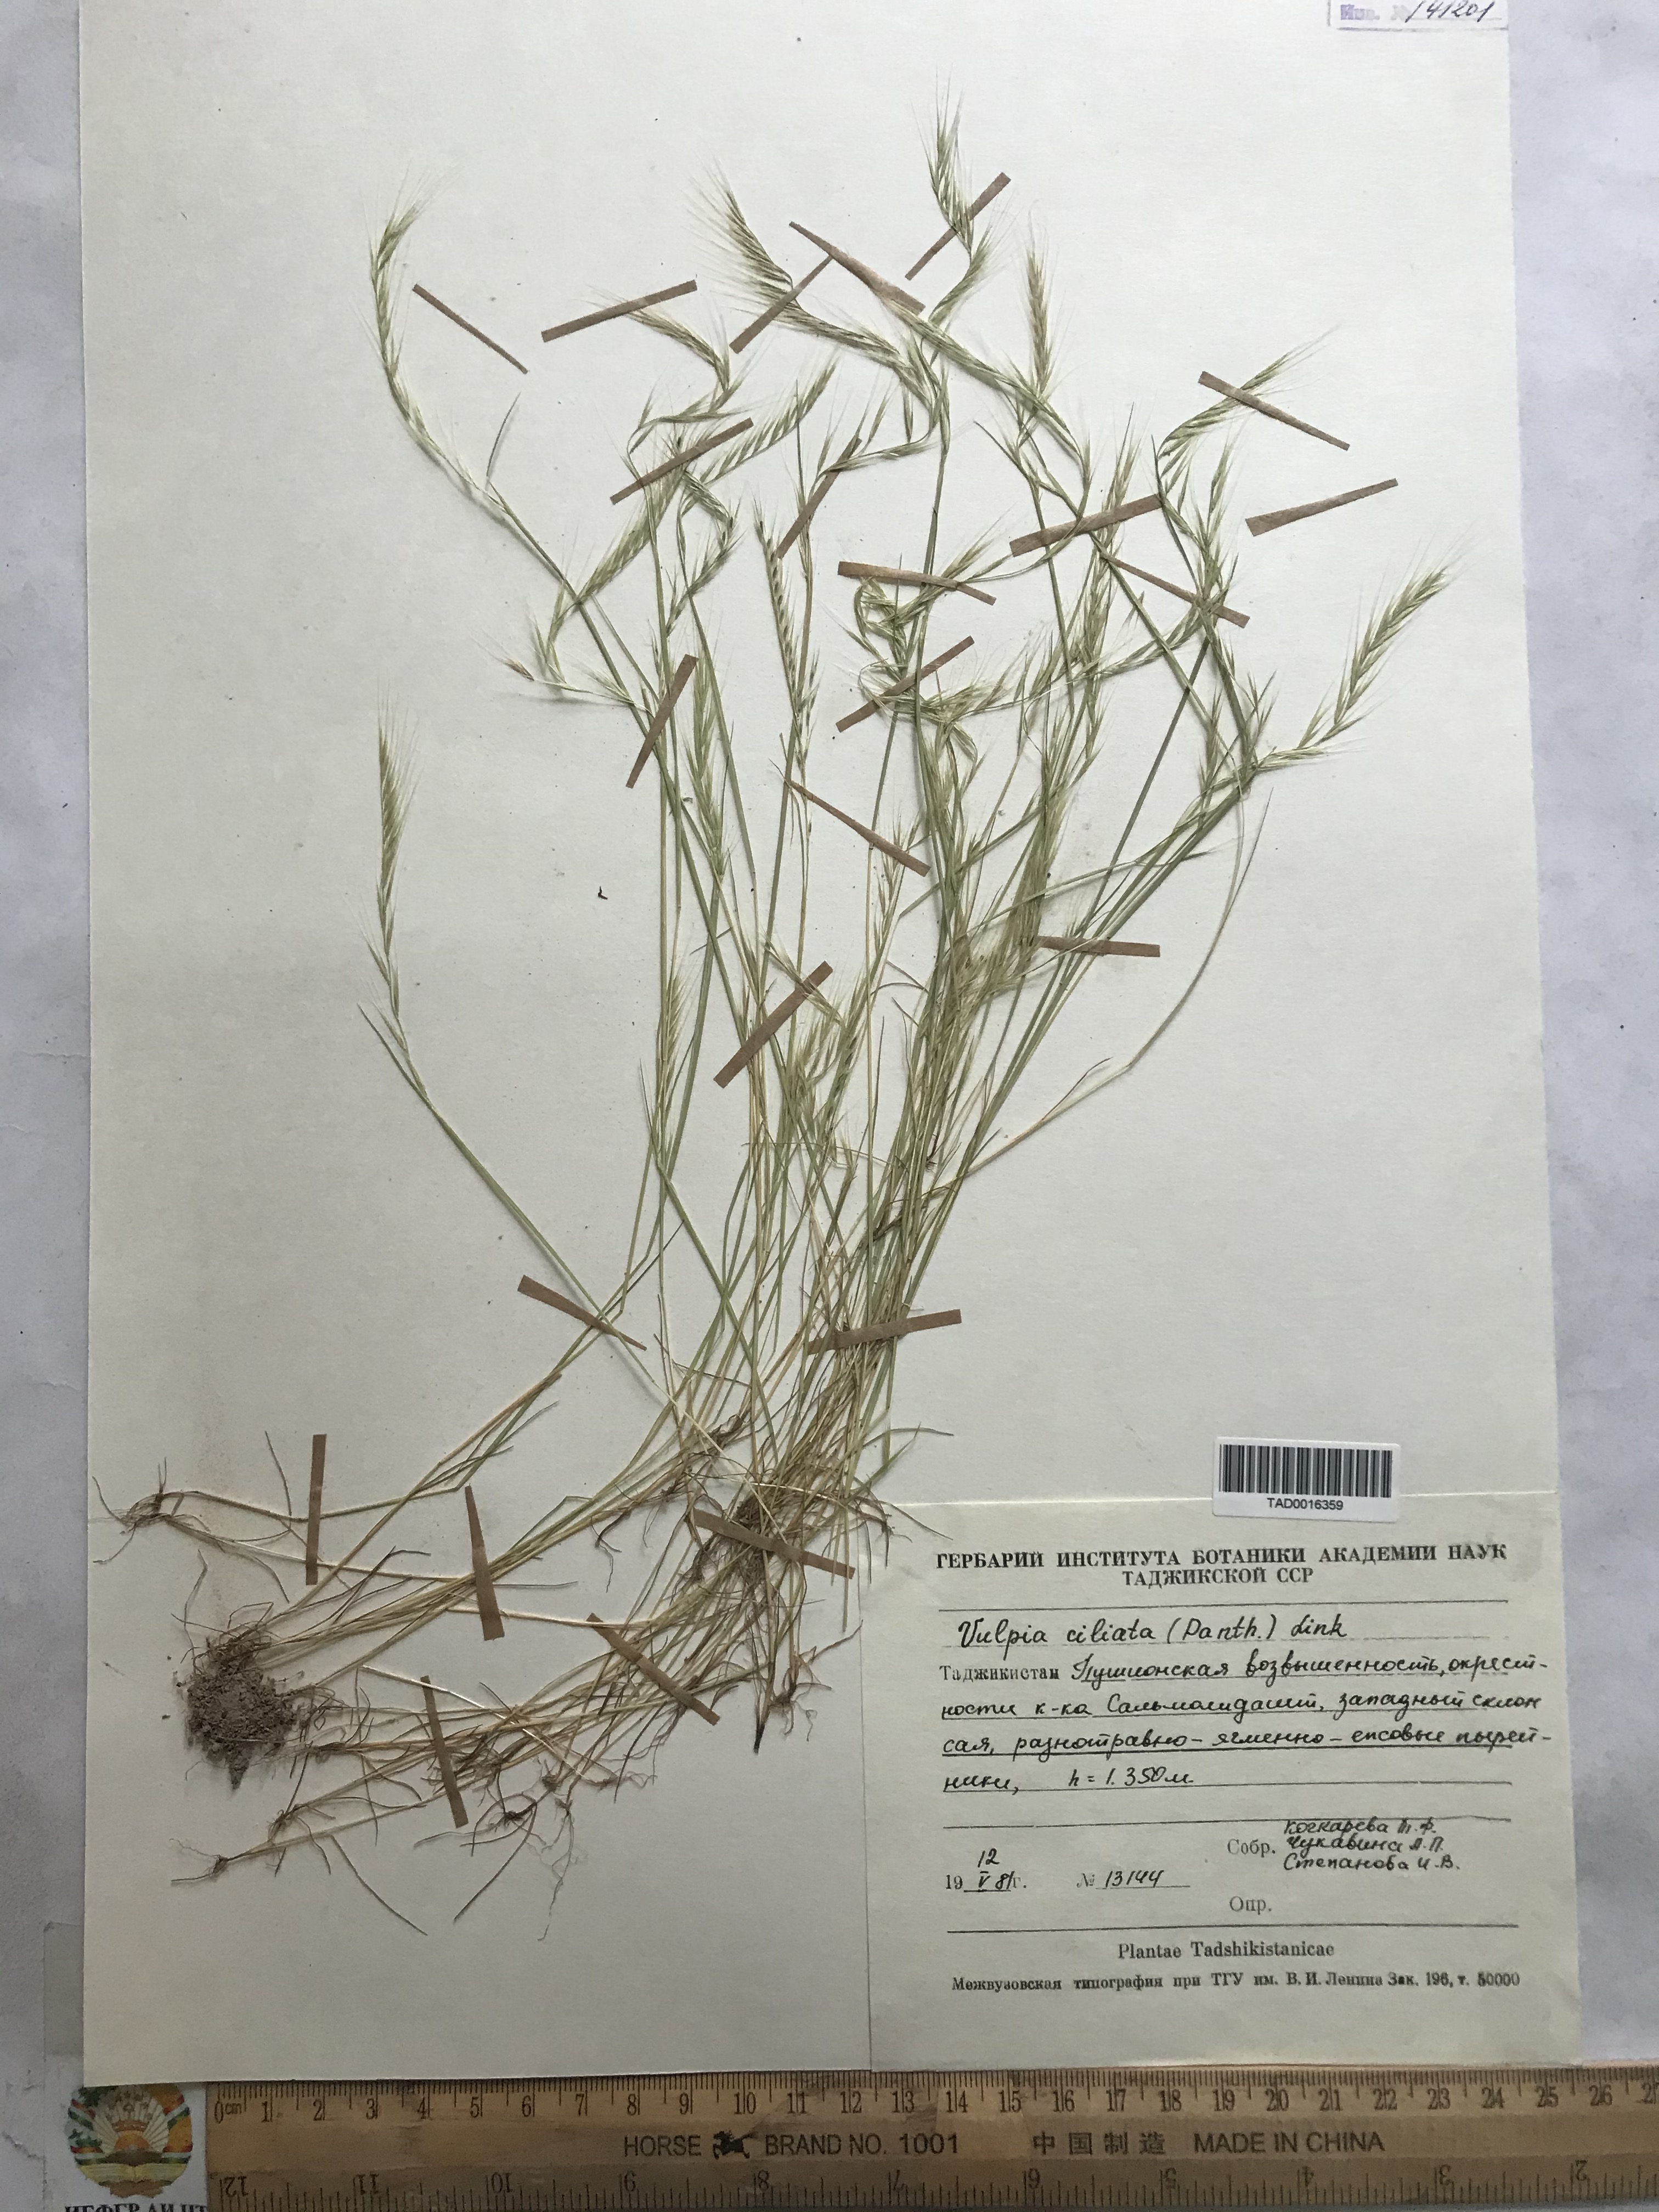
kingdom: Plantae
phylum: Tracheophyta
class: Liliopsida
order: Poales
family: Poaceae
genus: Festuca
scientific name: Festuca ambigua
